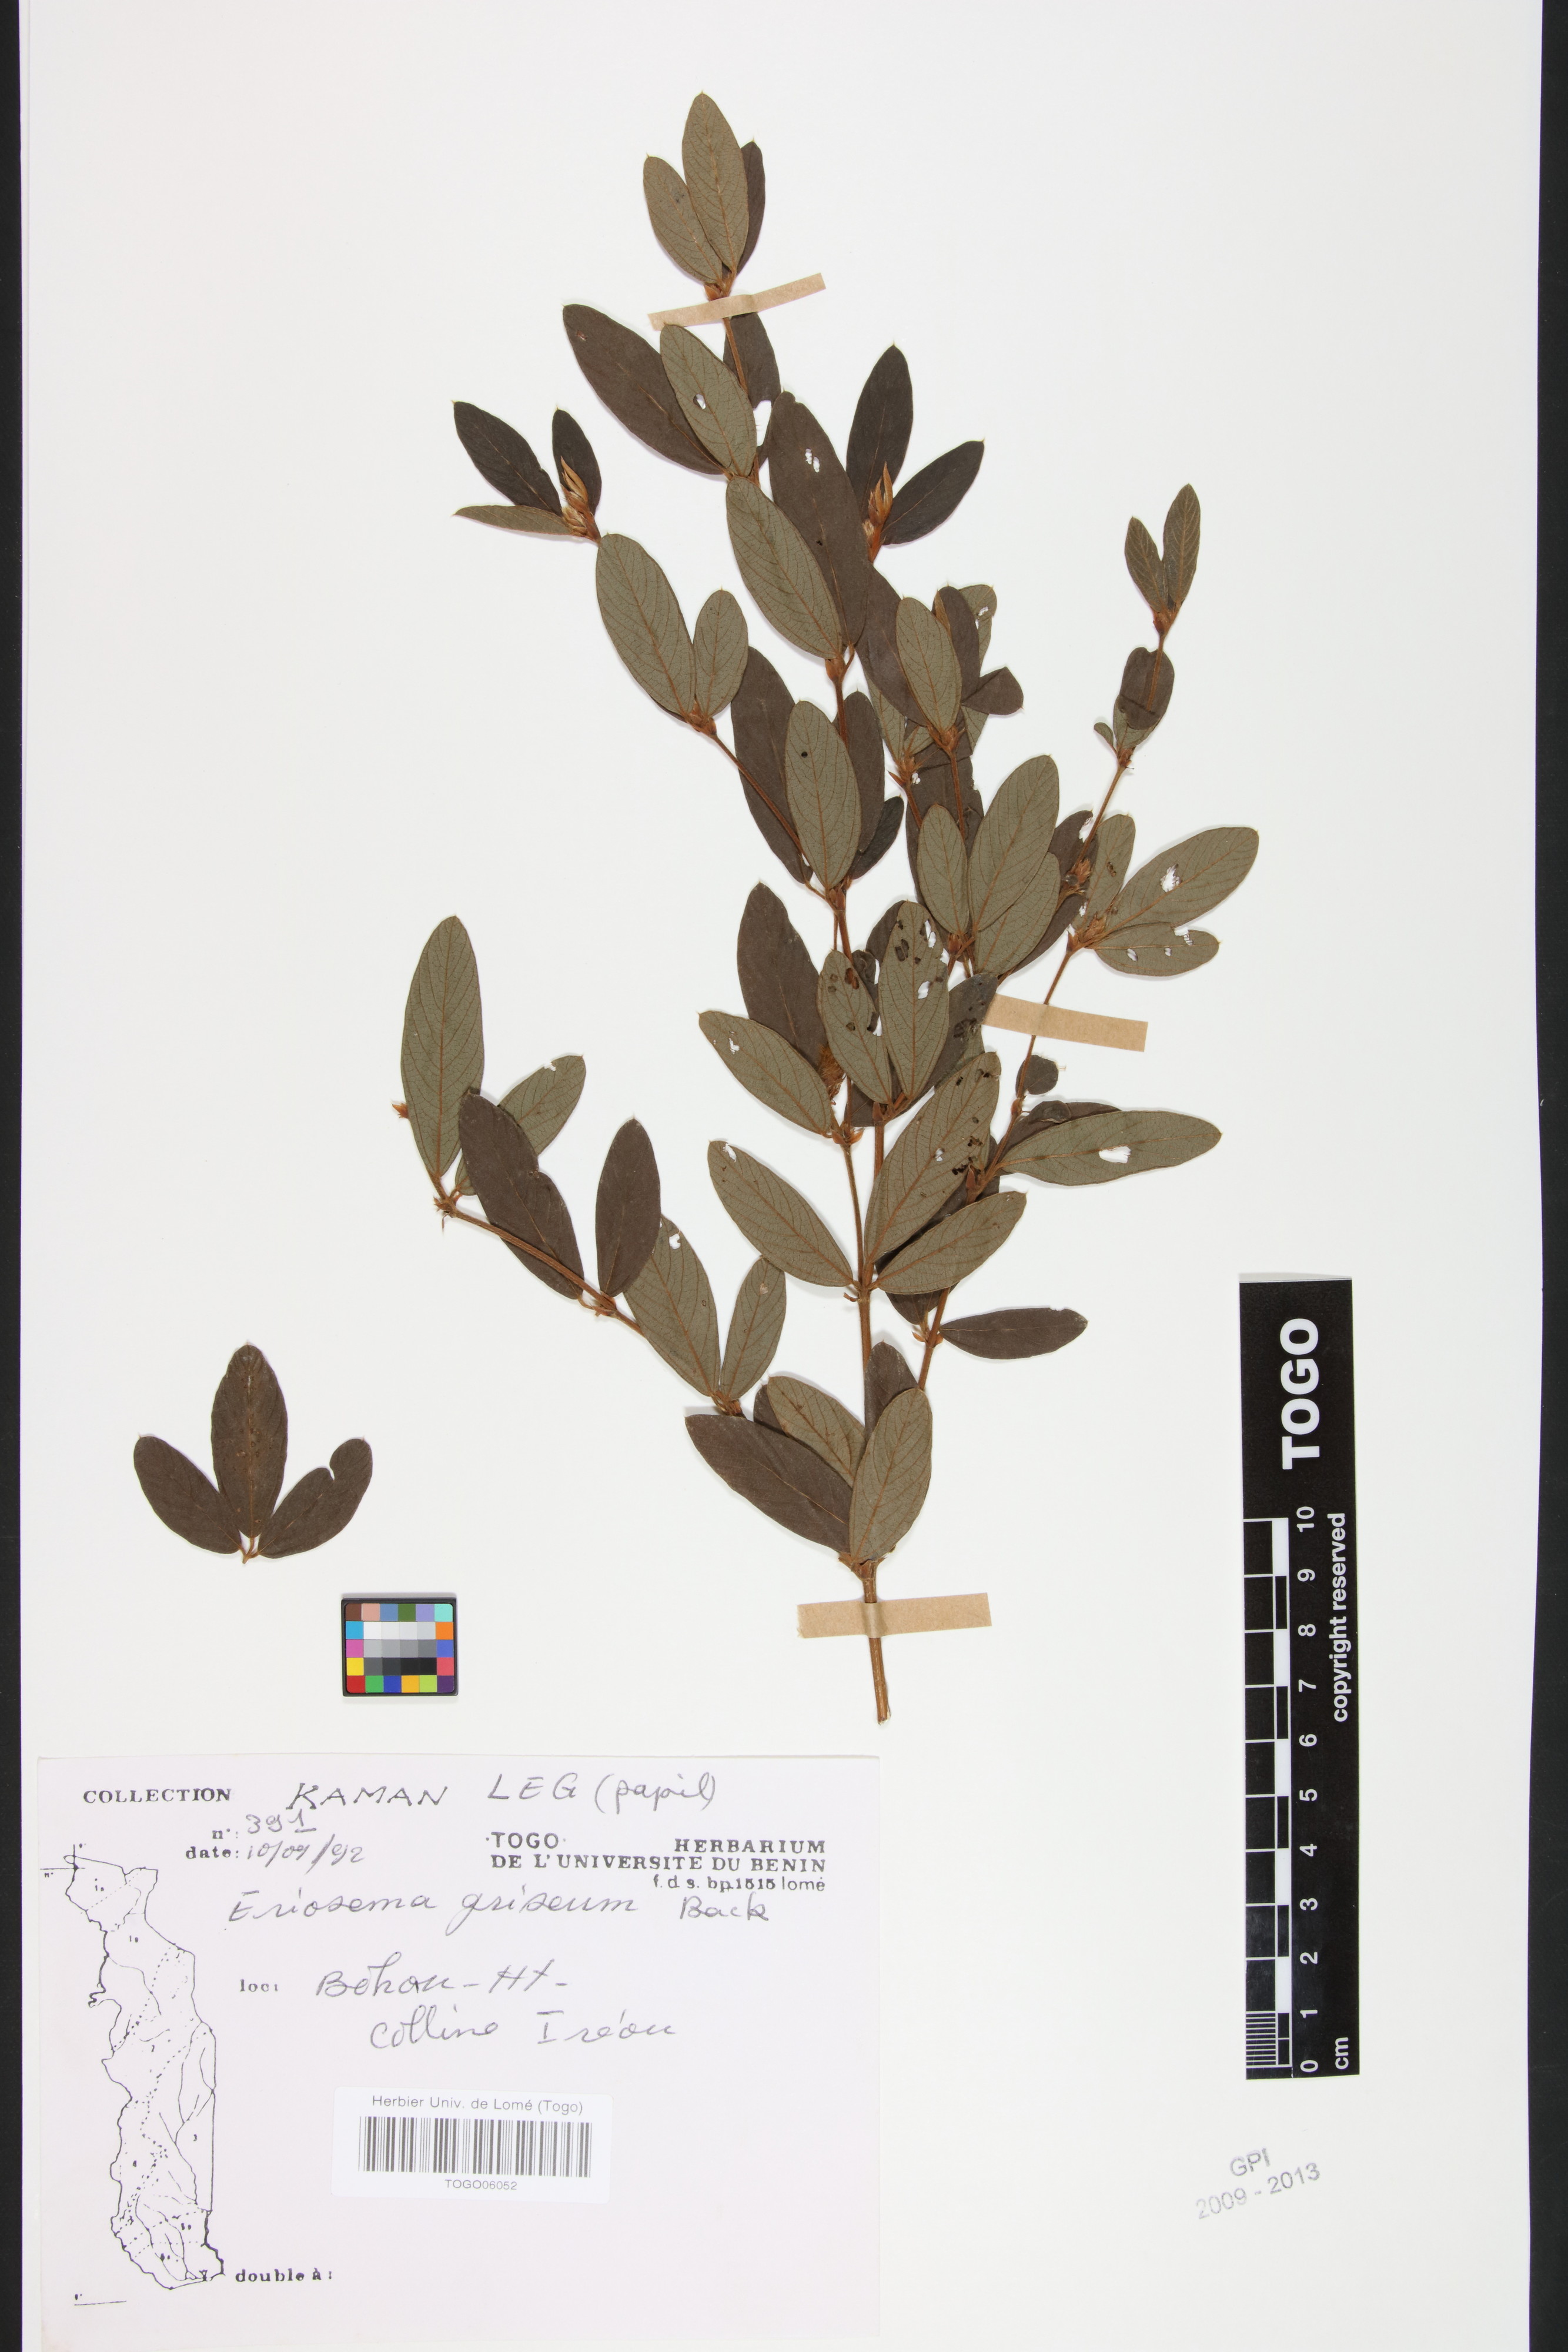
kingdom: Plantae
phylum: Tracheophyta
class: Magnoliopsida
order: Fabales
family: Fabaceae
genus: Eriosema
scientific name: Eriosema griseum
